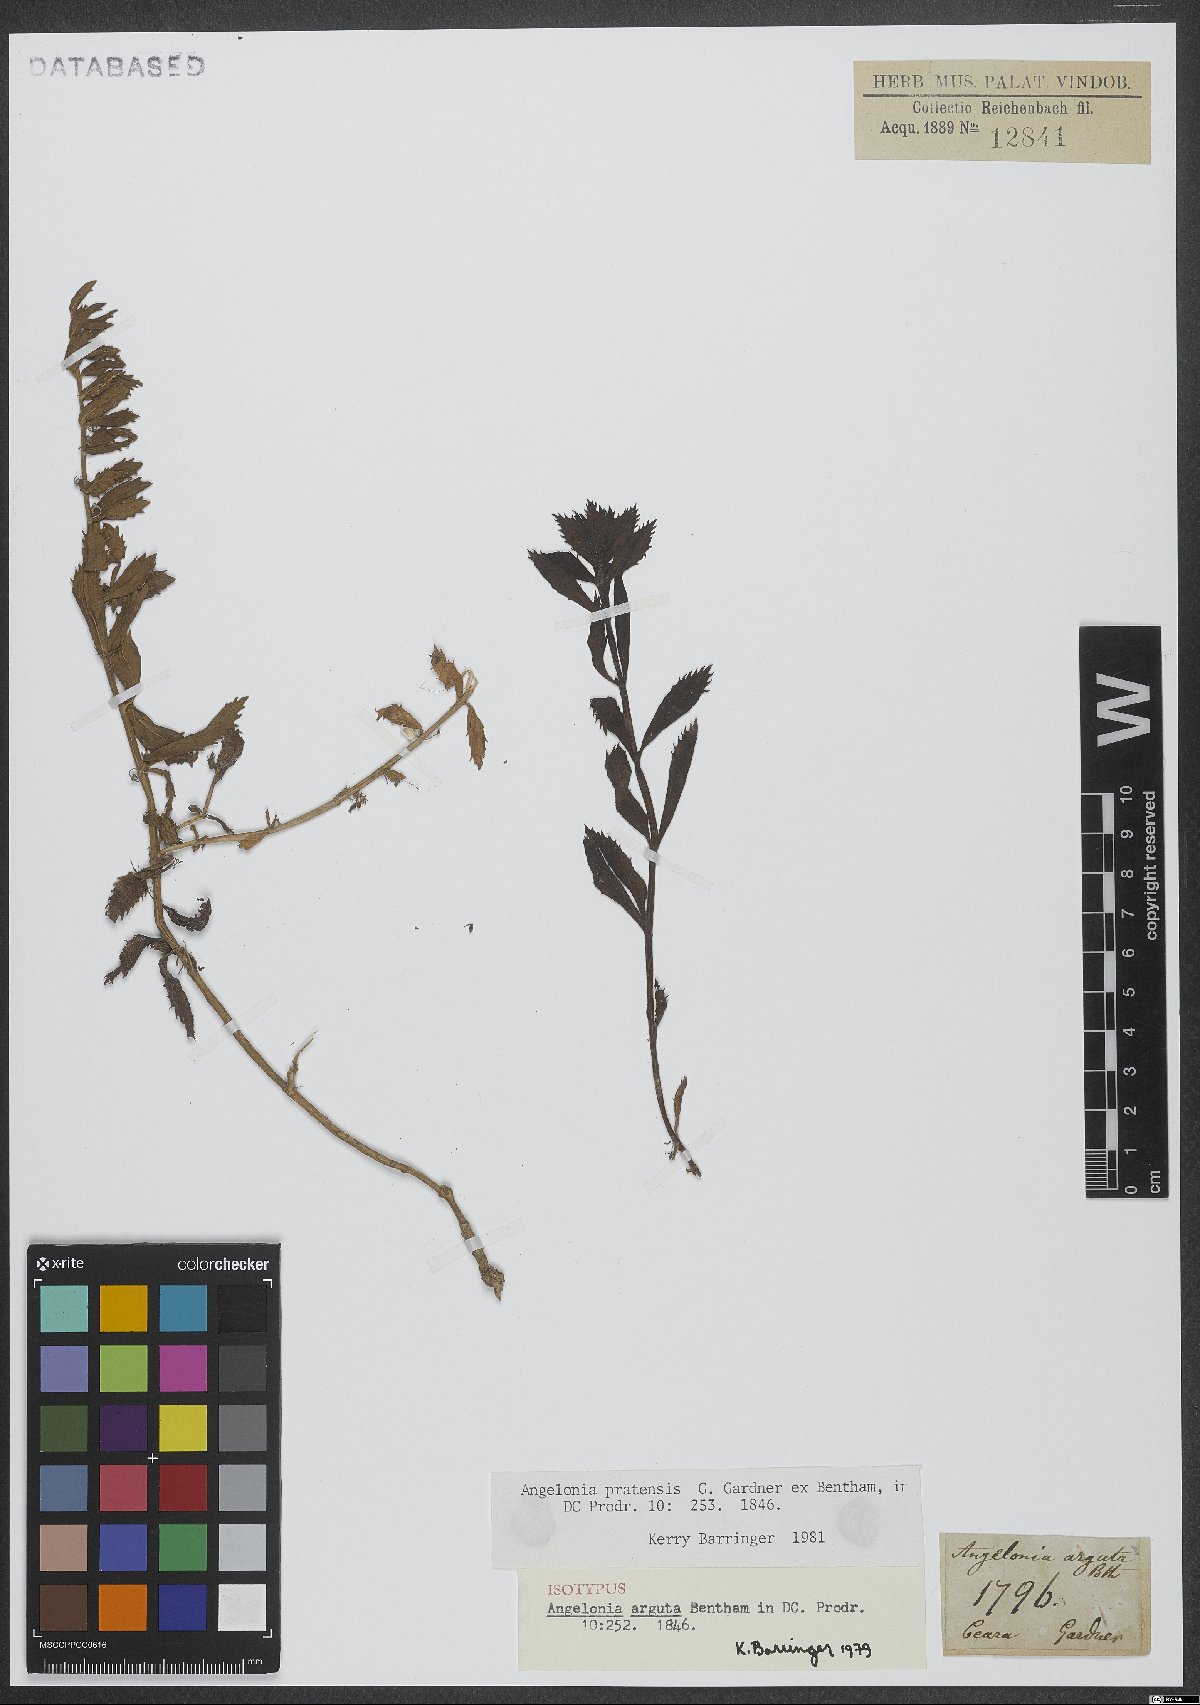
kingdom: Plantae
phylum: Tracheophyta
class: Magnoliopsida
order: Lamiales
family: Plantaginaceae
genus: Angelonia
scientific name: Angelonia arguta
